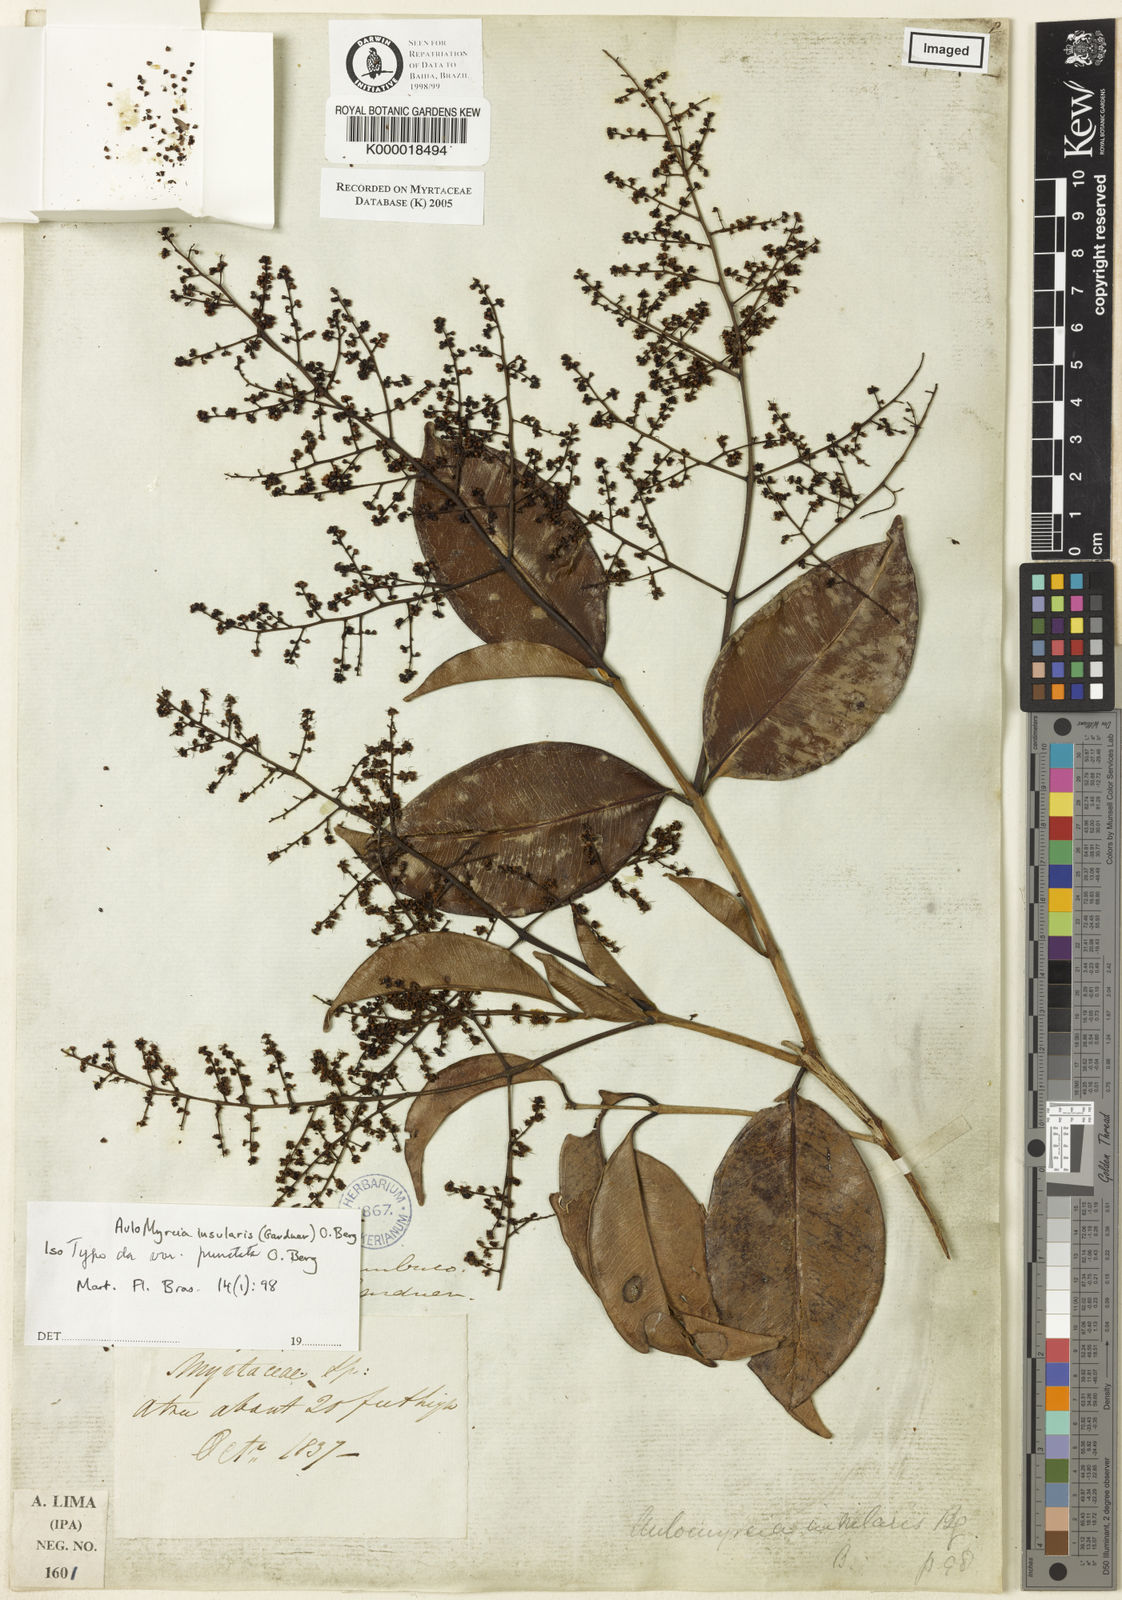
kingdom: Plantae
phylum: Tracheophyta
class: Magnoliopsida
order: Myrtales
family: Myrtaceae
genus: Myrcia
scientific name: Myrcia insularis
